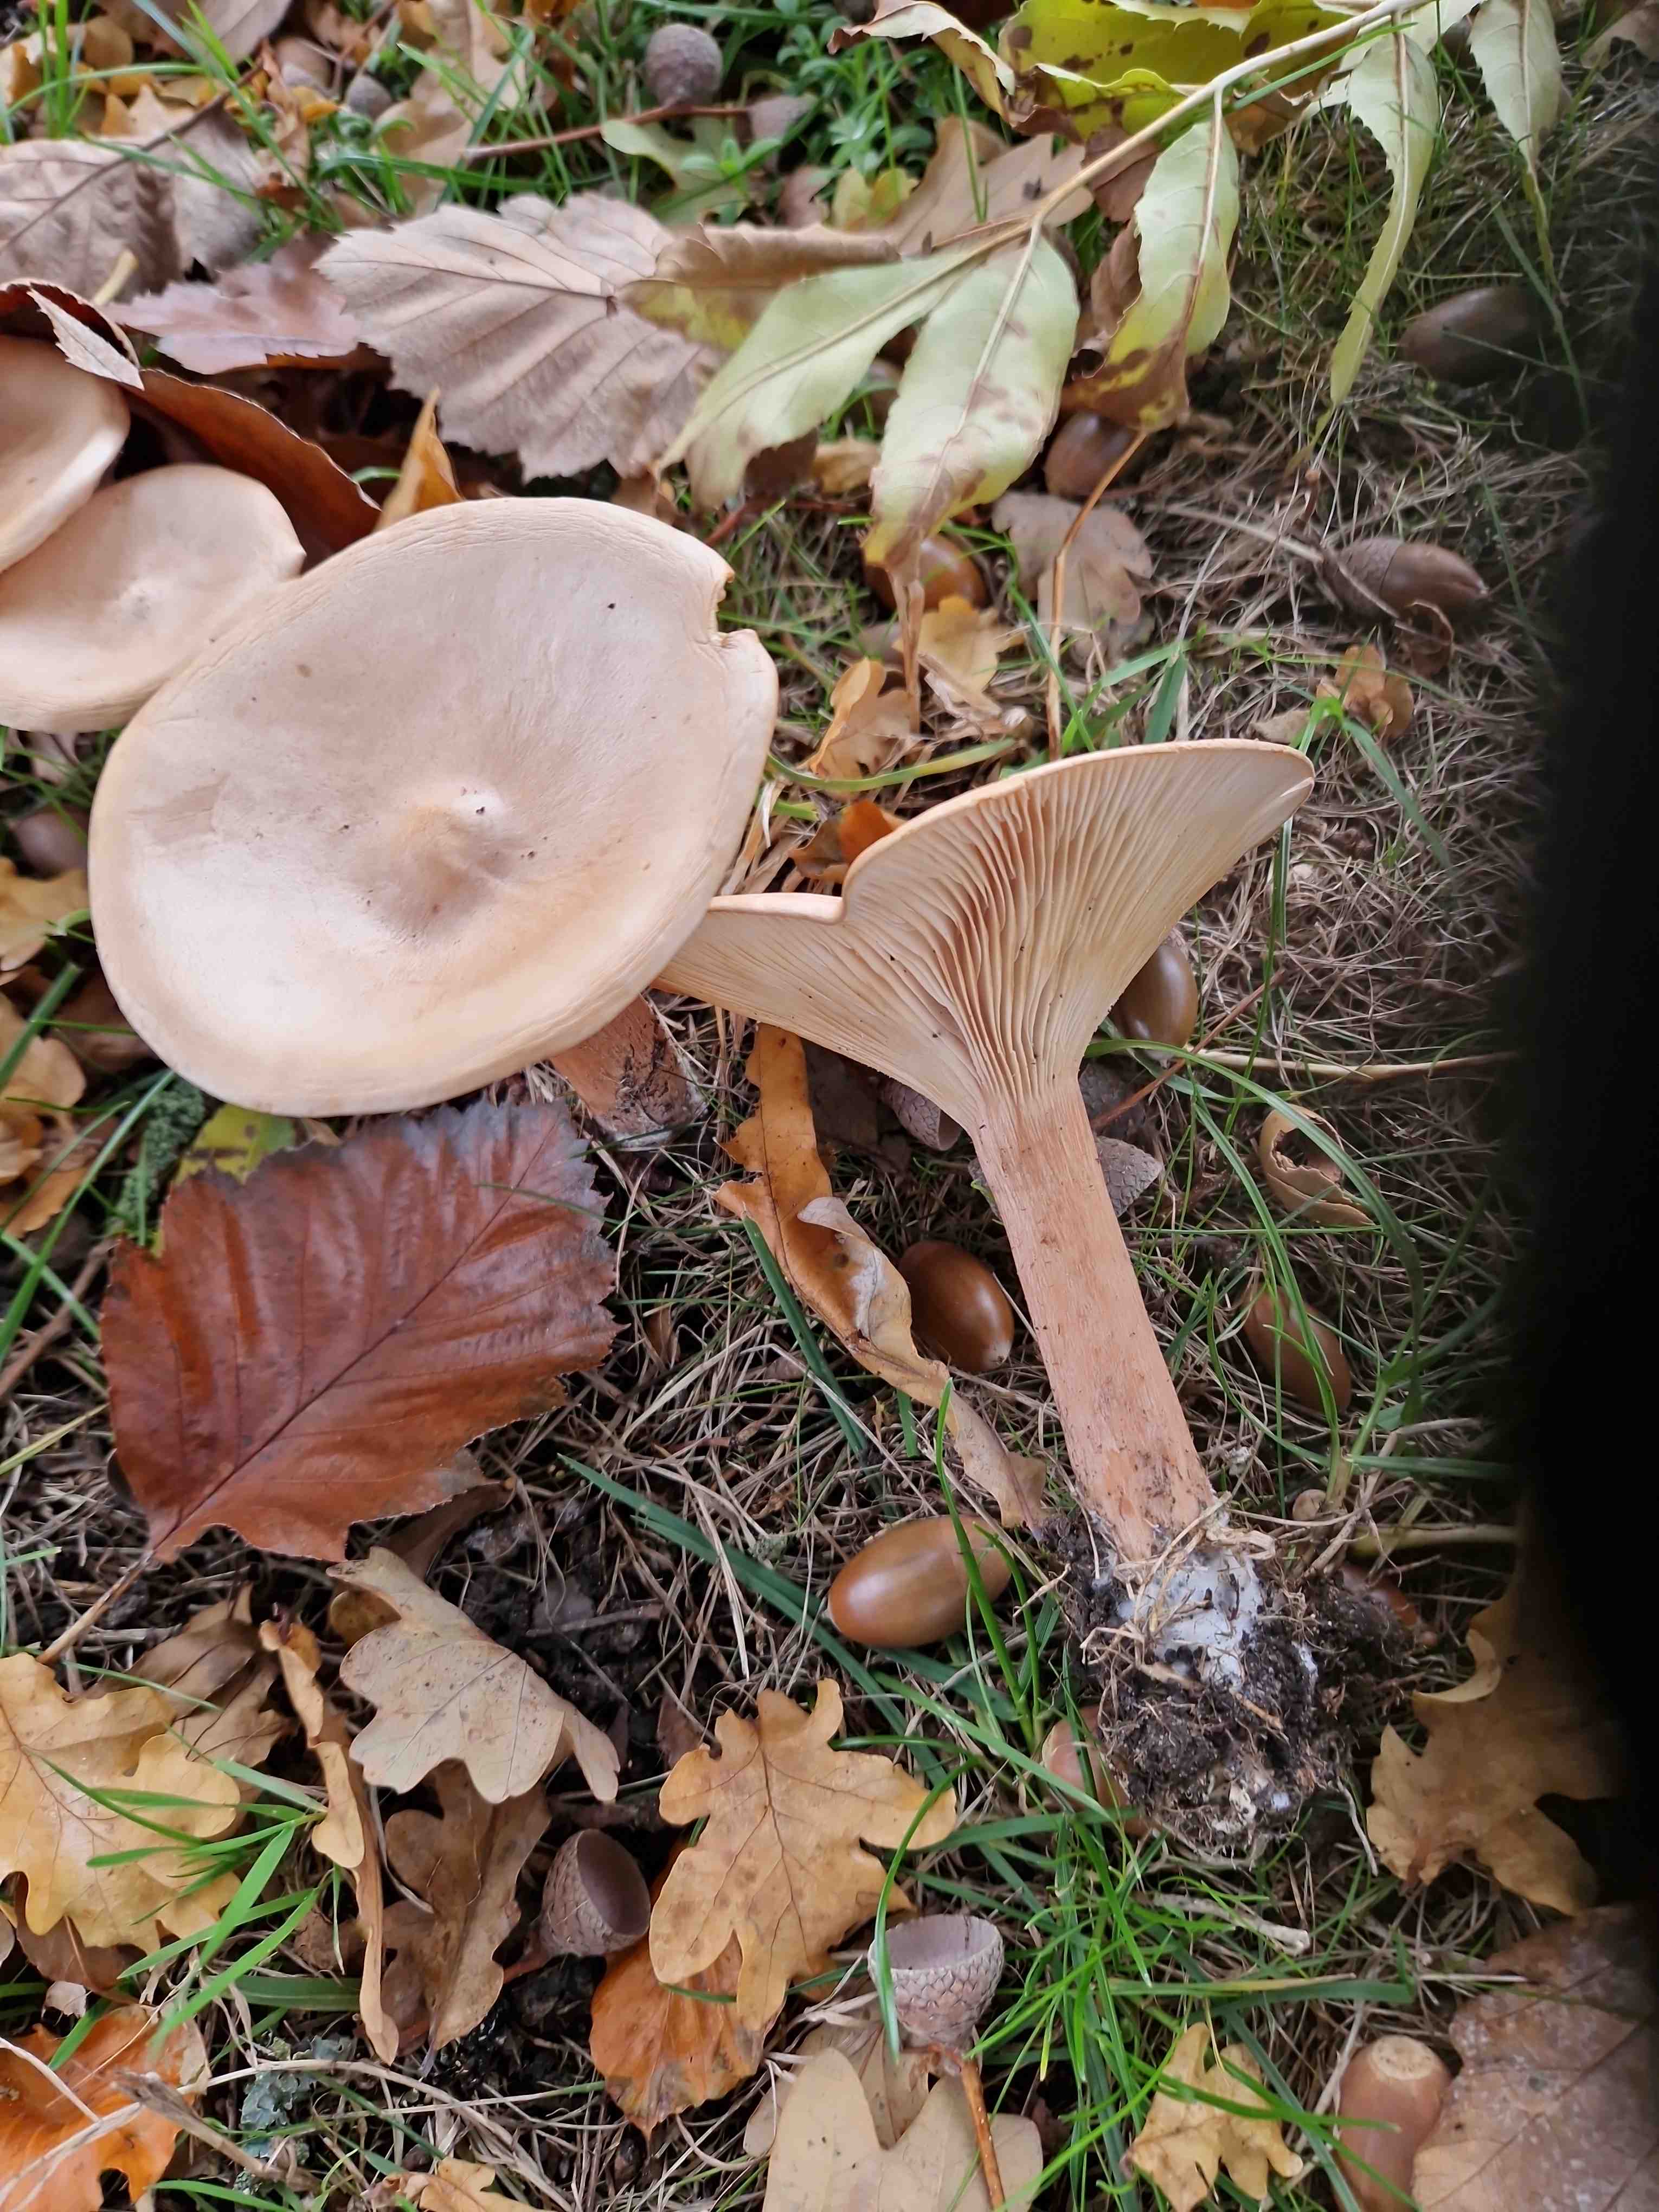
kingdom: Fungi
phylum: Basidiomycota
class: Agaricomycetes
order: Agaricales
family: Tricholomataceae
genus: Infundibulicybe
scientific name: Infundibulicybe geotropa
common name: stor tragthat
